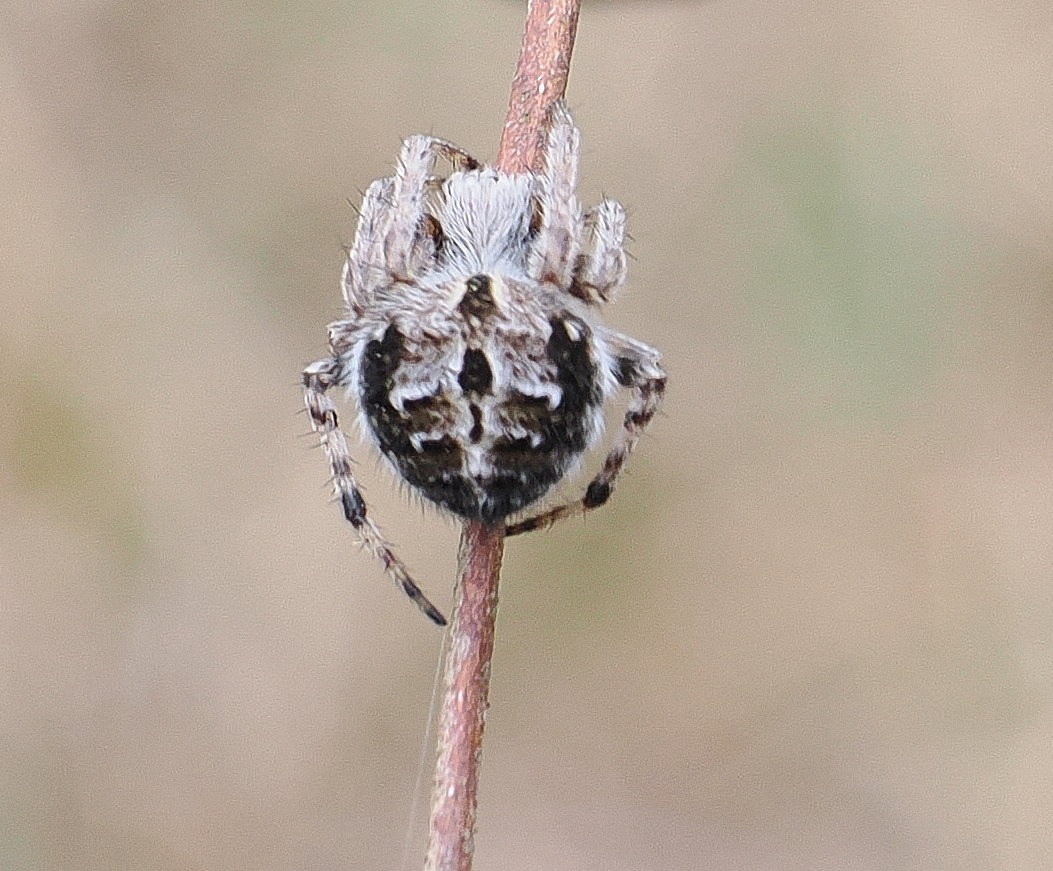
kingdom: Animalia
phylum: Arthropoda
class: Arachnida
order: Araneae
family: Araneidae
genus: Agalenatea
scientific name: Agalenatea redii
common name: Lodden hjulspinder
